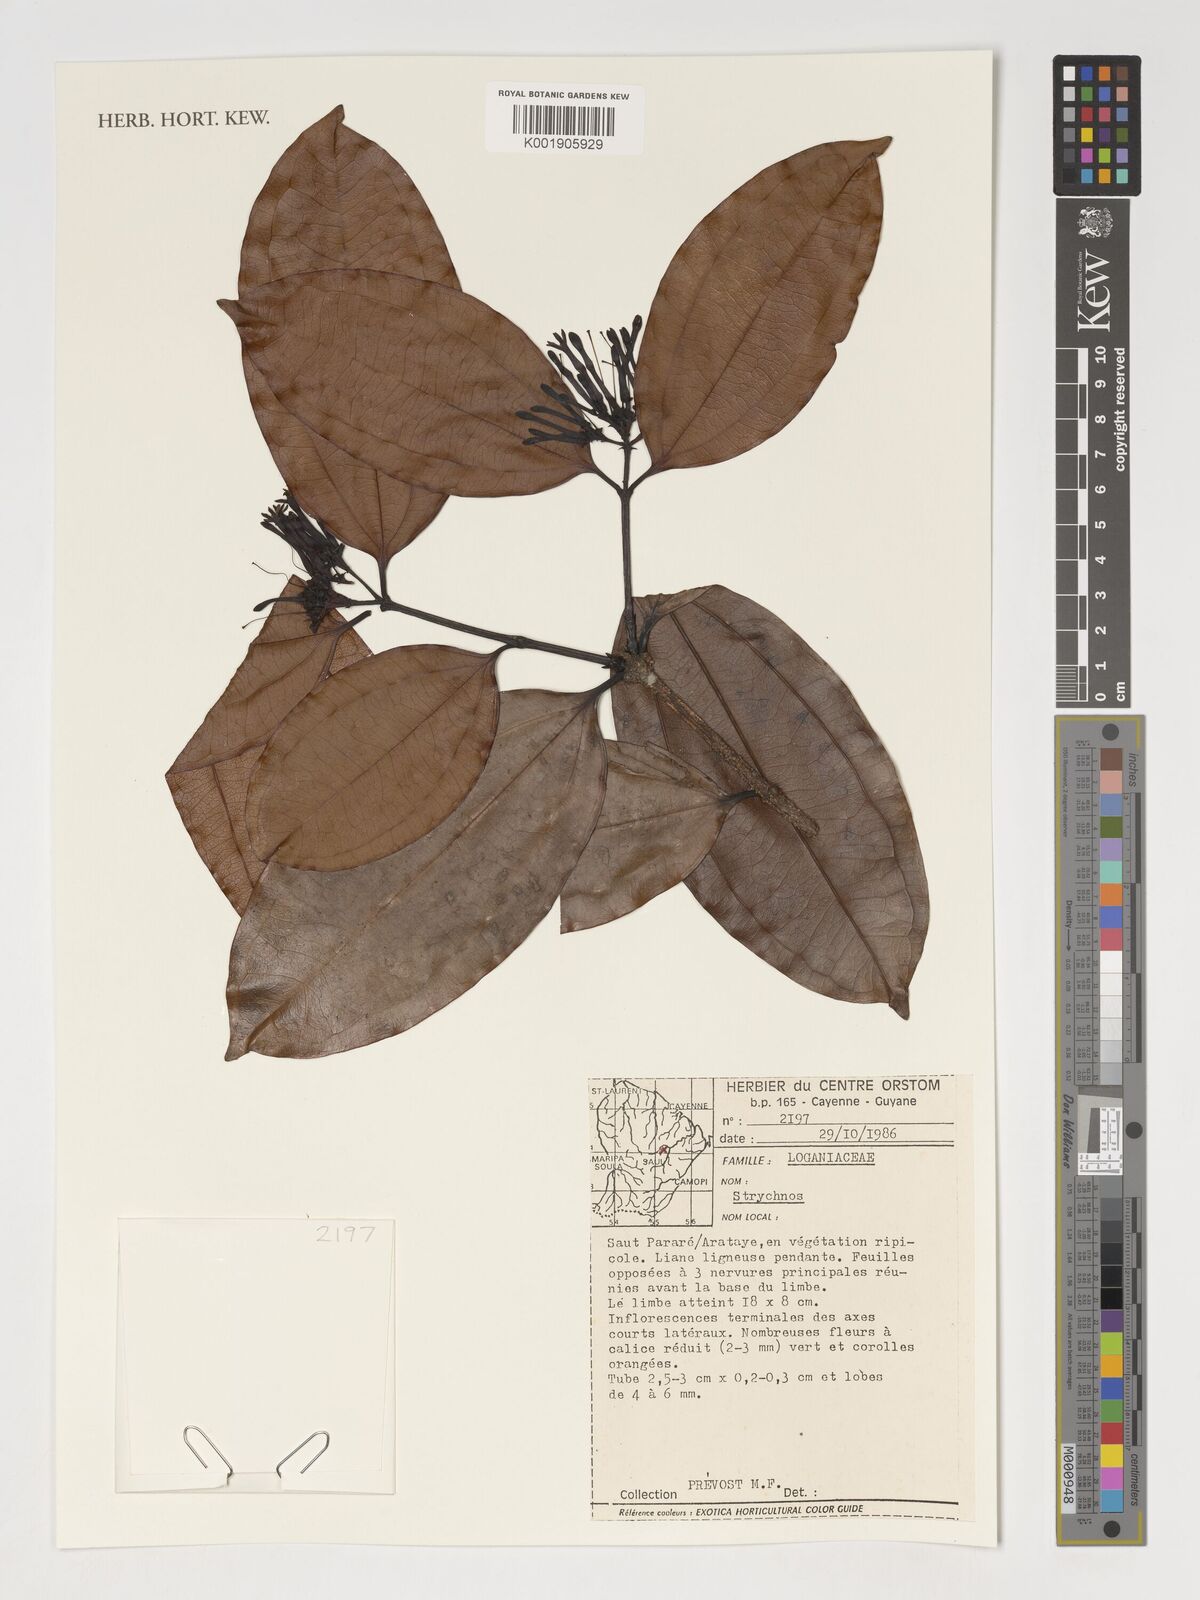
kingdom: Plantae
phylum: Tracheophyta
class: Magnoliopsida
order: Gentianales
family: Loganiaceae
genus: Strychnos
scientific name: Strychnos
